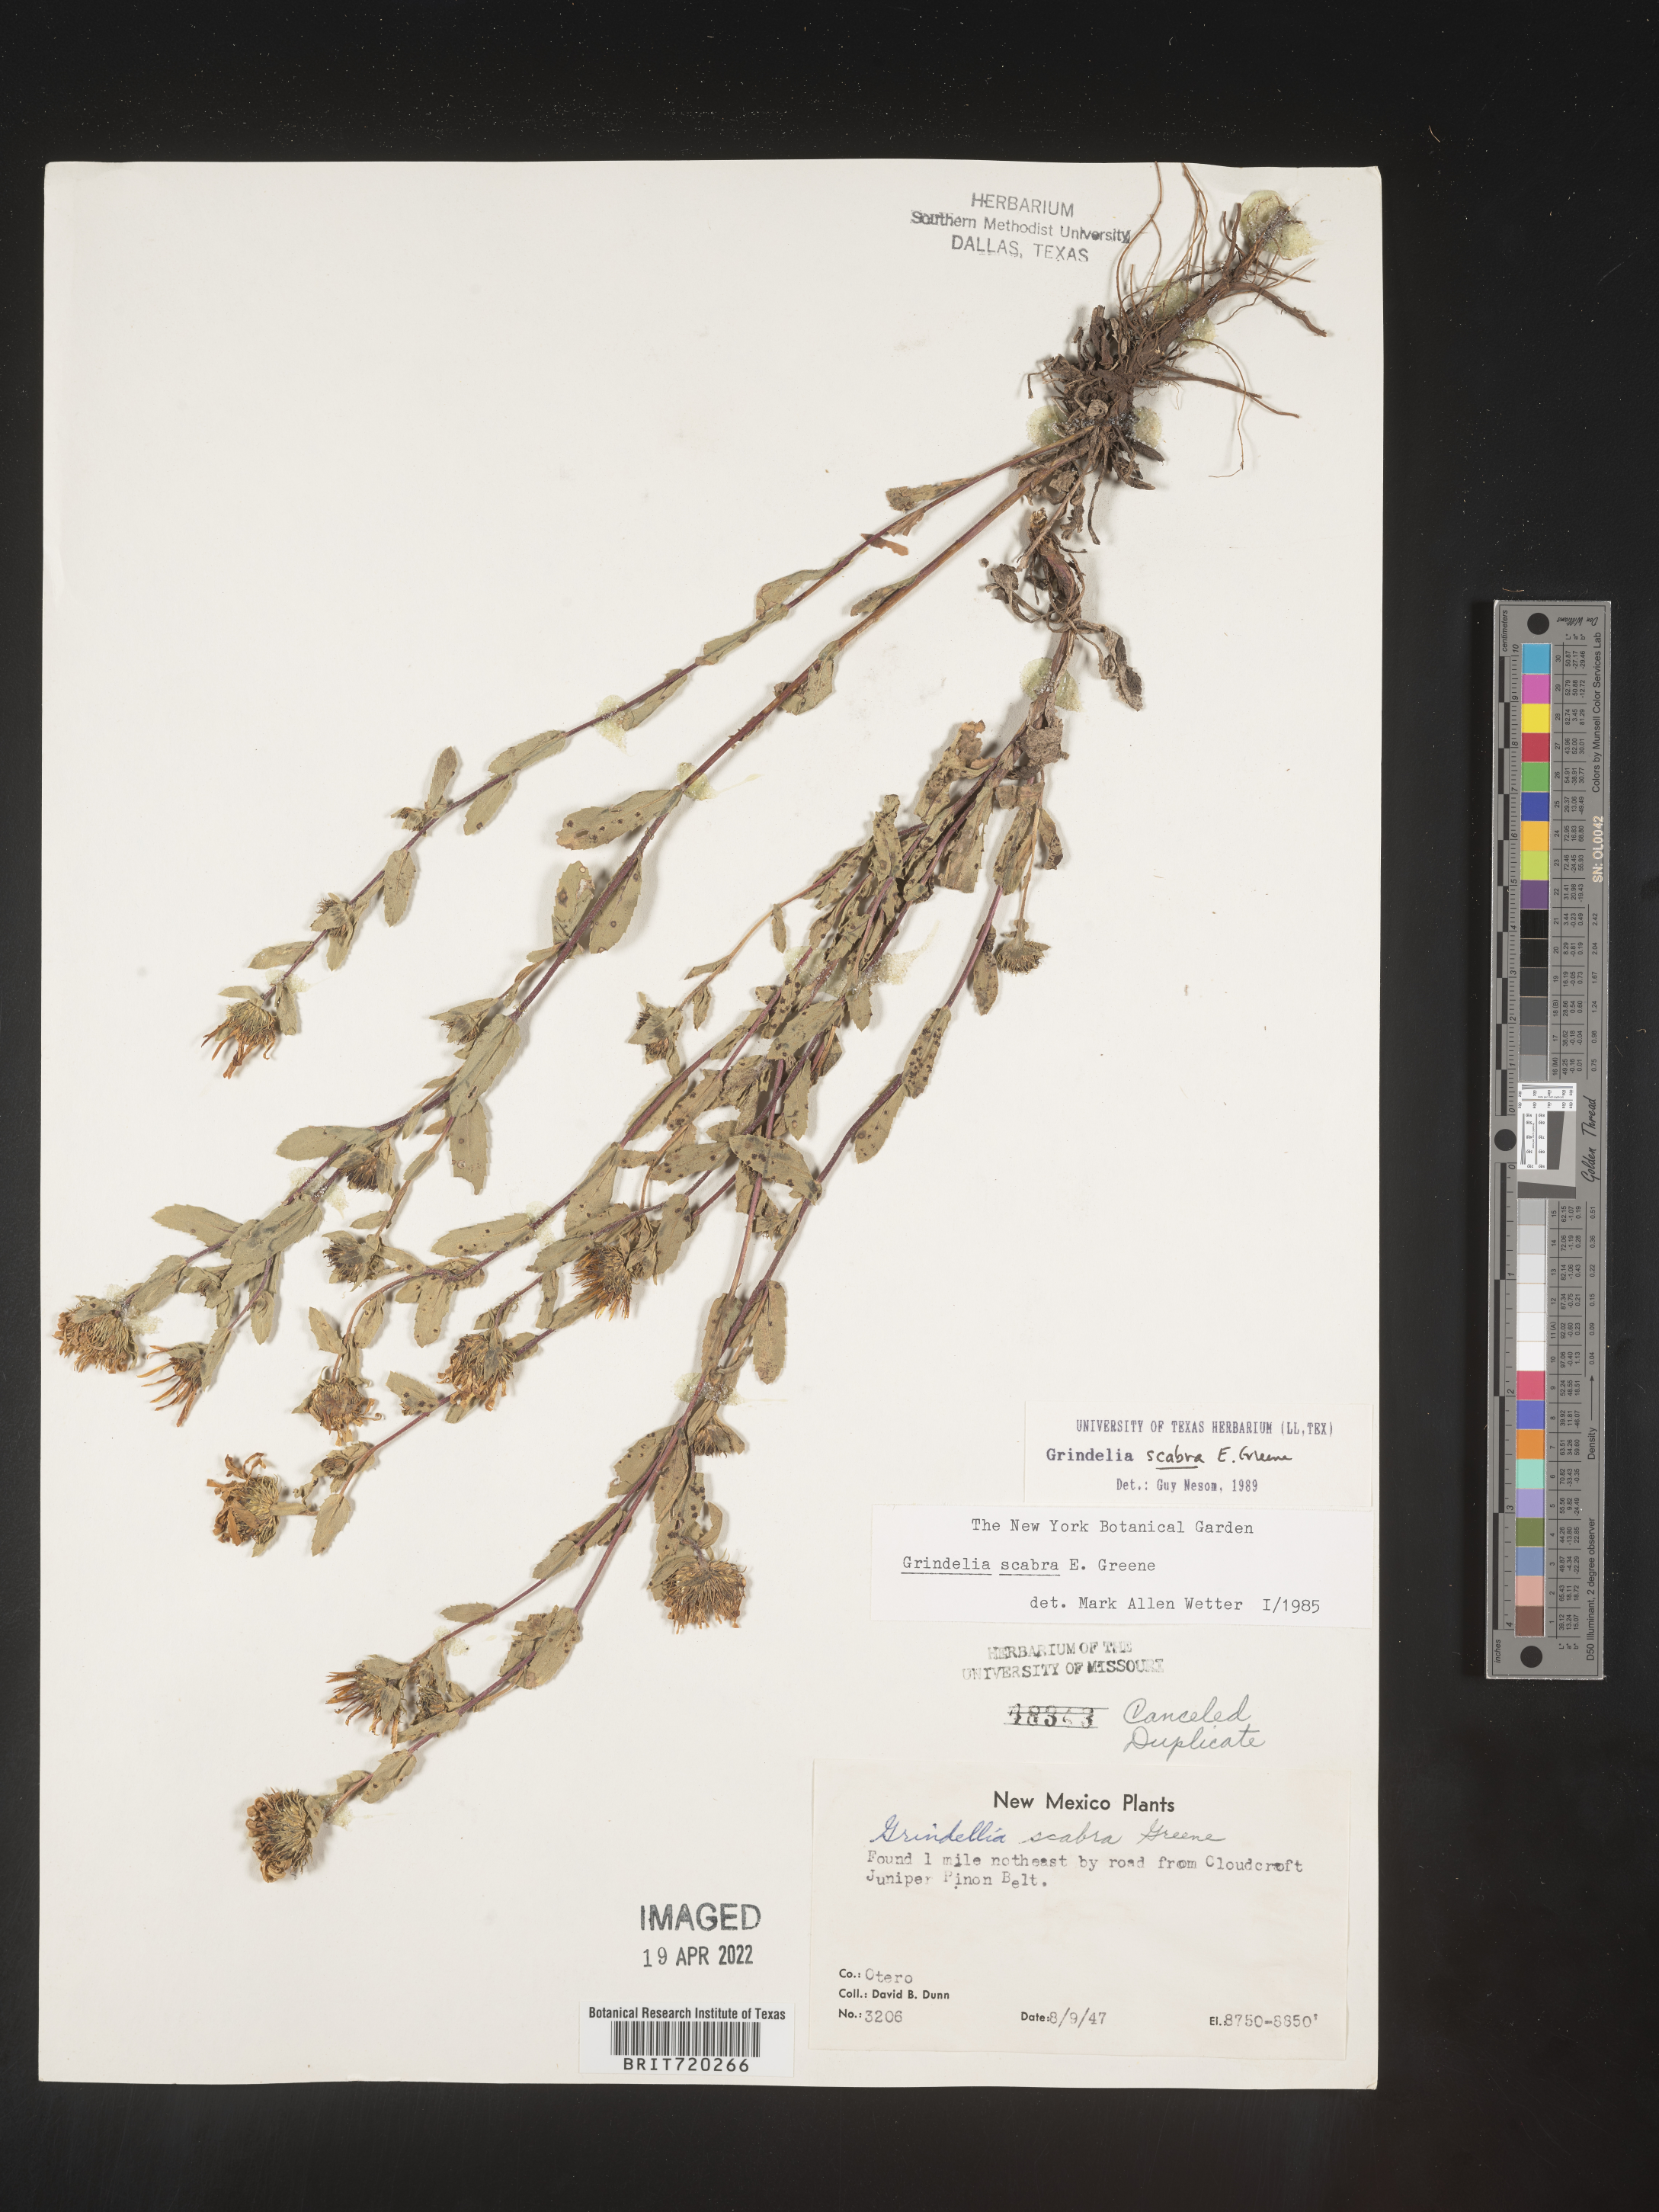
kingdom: Plantae
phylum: Tracheophyta
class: Magnoliopsida
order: Asterales
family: Asteraceae
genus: Grindelia
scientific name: Grindelia scabra
